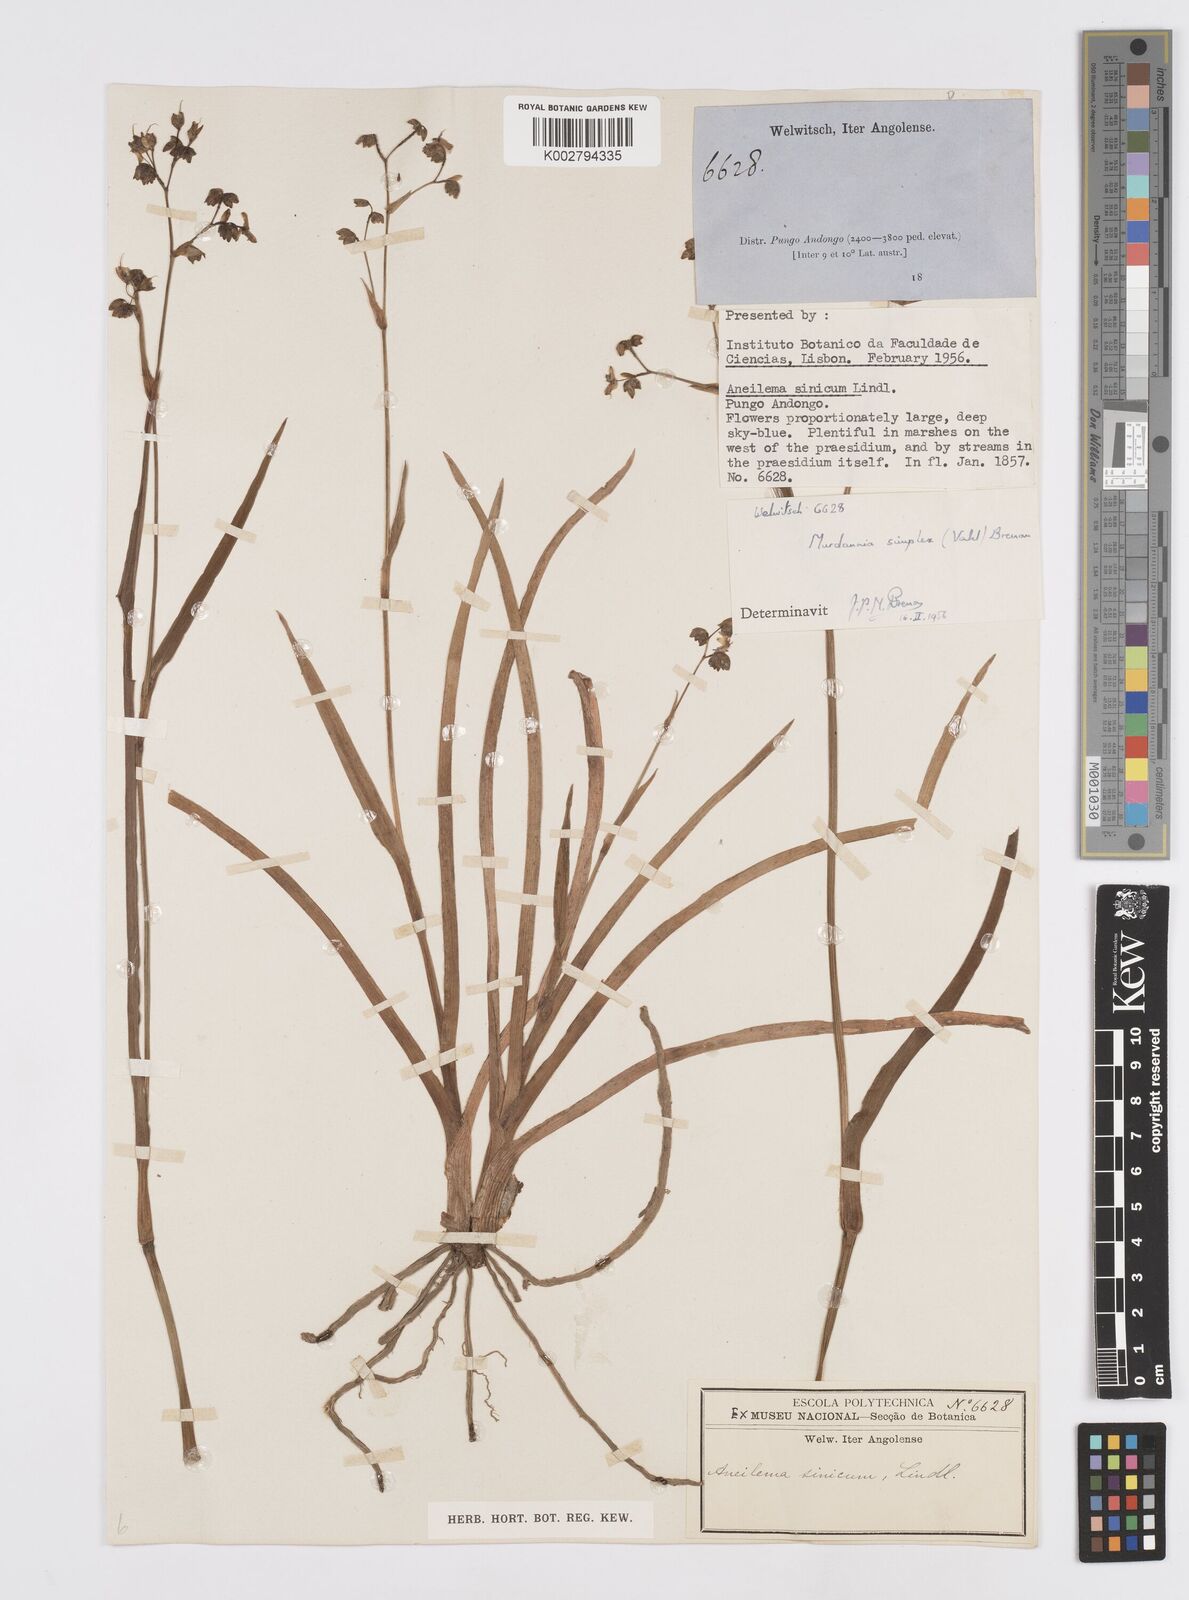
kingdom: Plantae
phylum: Tracheophyta
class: Liliopsida
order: Commelinales
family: Commelinaceae
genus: Murdannia
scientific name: Murdannia simplex
